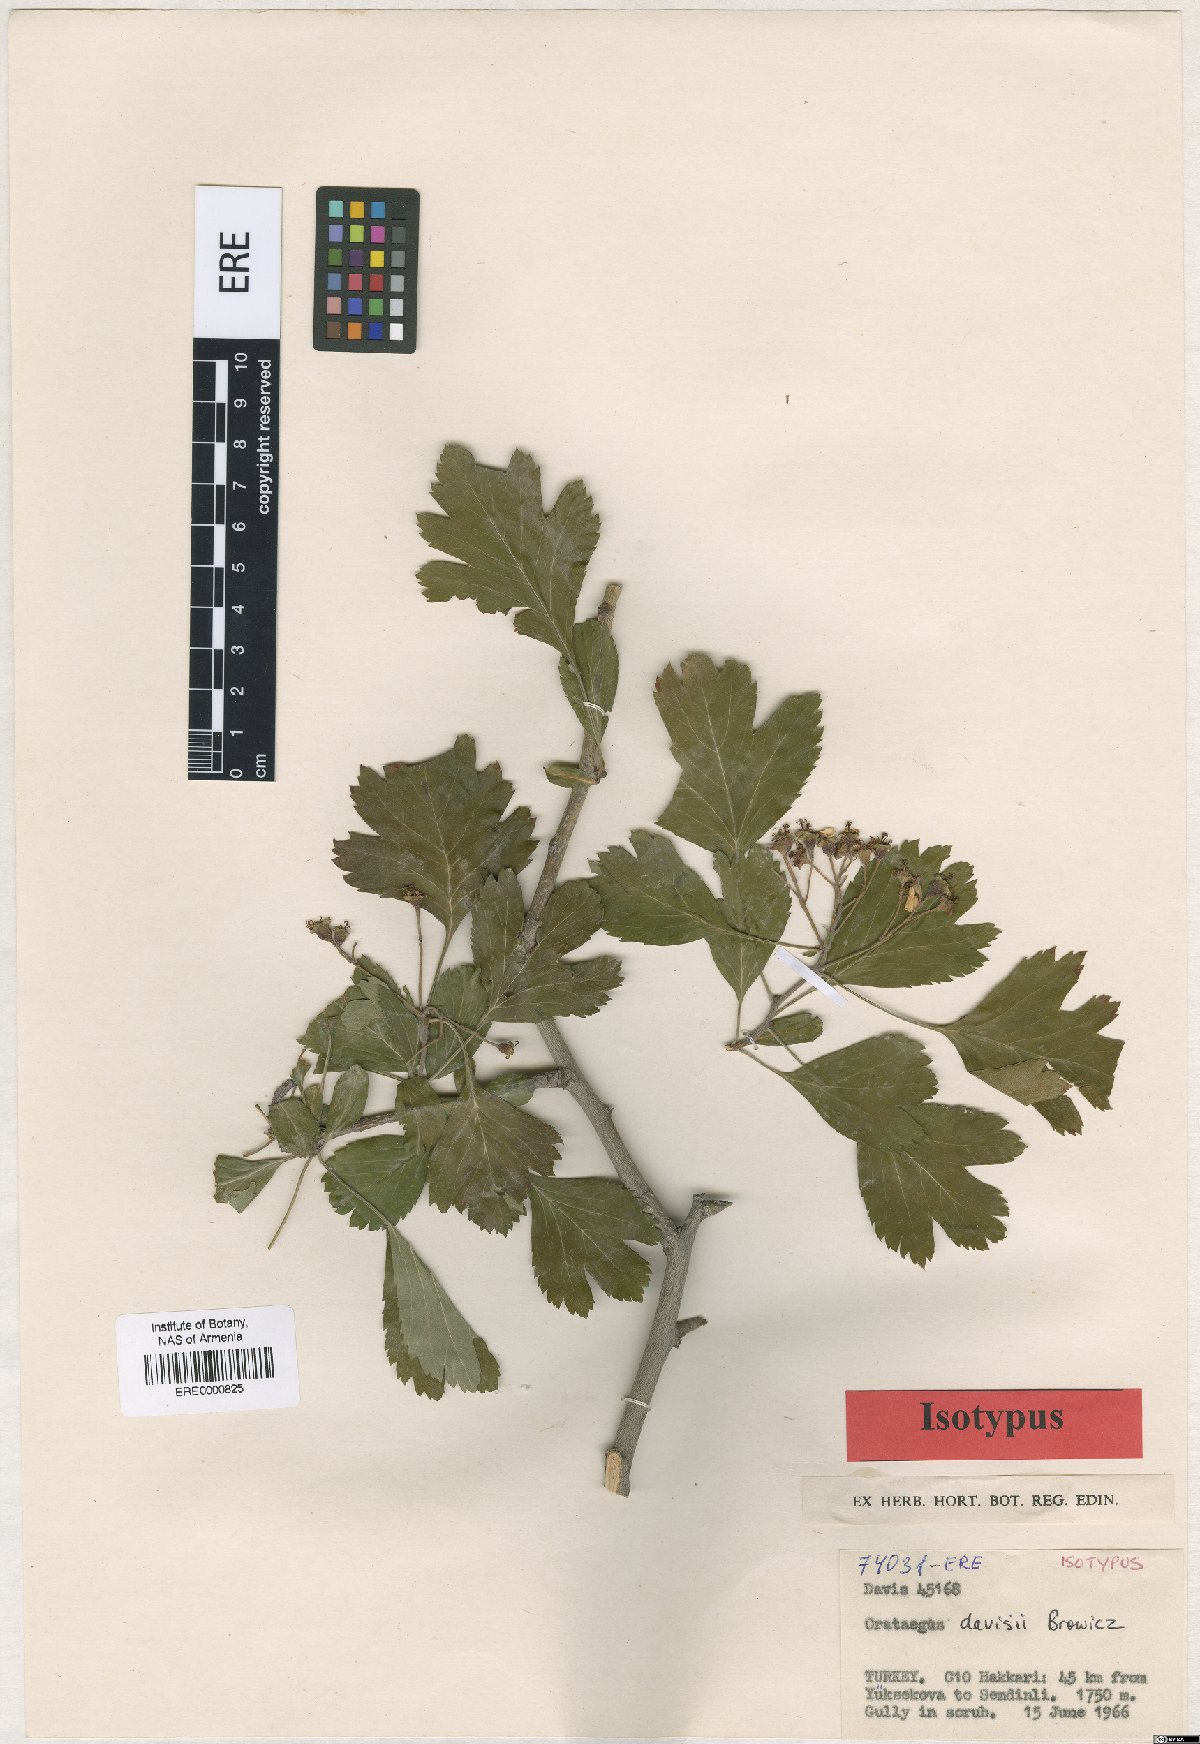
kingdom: Plantae
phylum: Tracheophyta
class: Magnoliopsida
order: Rosales
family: Rosaceae
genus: Crataegus
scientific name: Crataegus pentagyna
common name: Small-flowered black hawthorn
